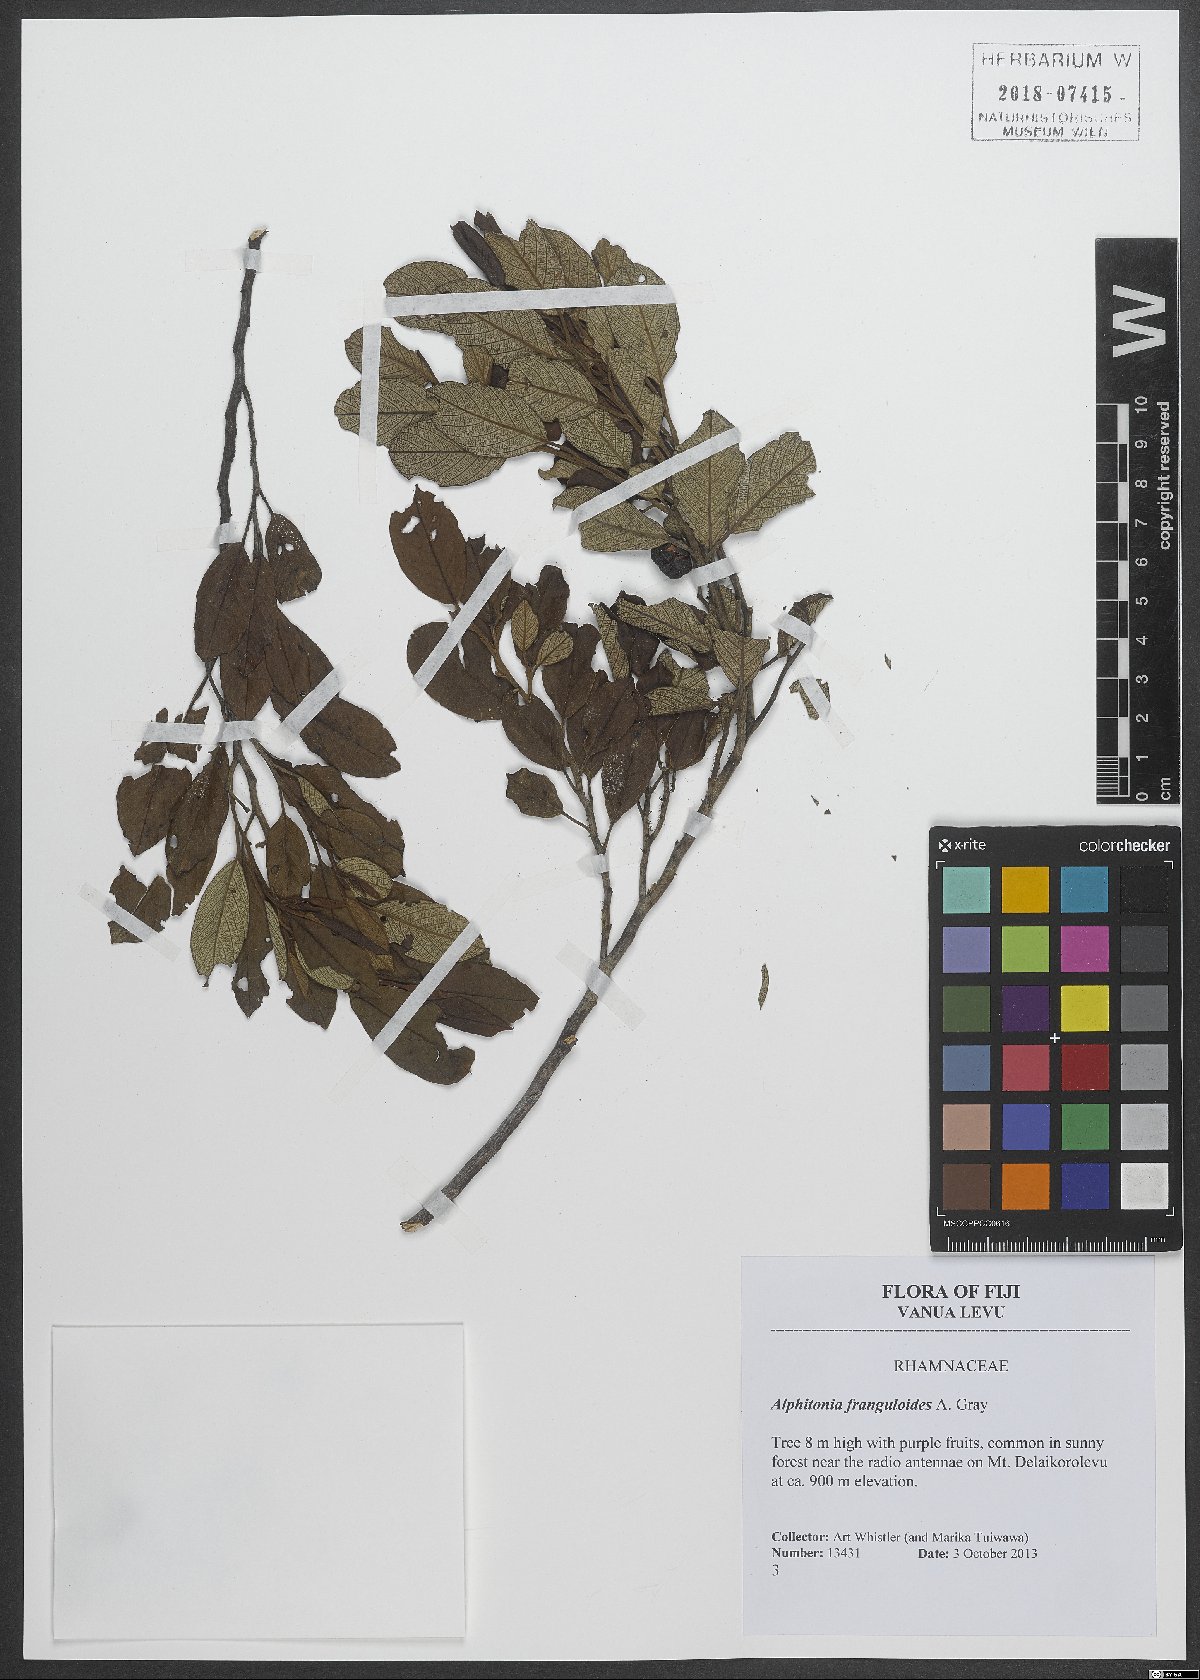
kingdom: Plantae
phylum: Tracheophyta
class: Magnoliopsida
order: Rosales
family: Rhamnaceae
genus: Alphitonia
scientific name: Alphitonia franguloides
